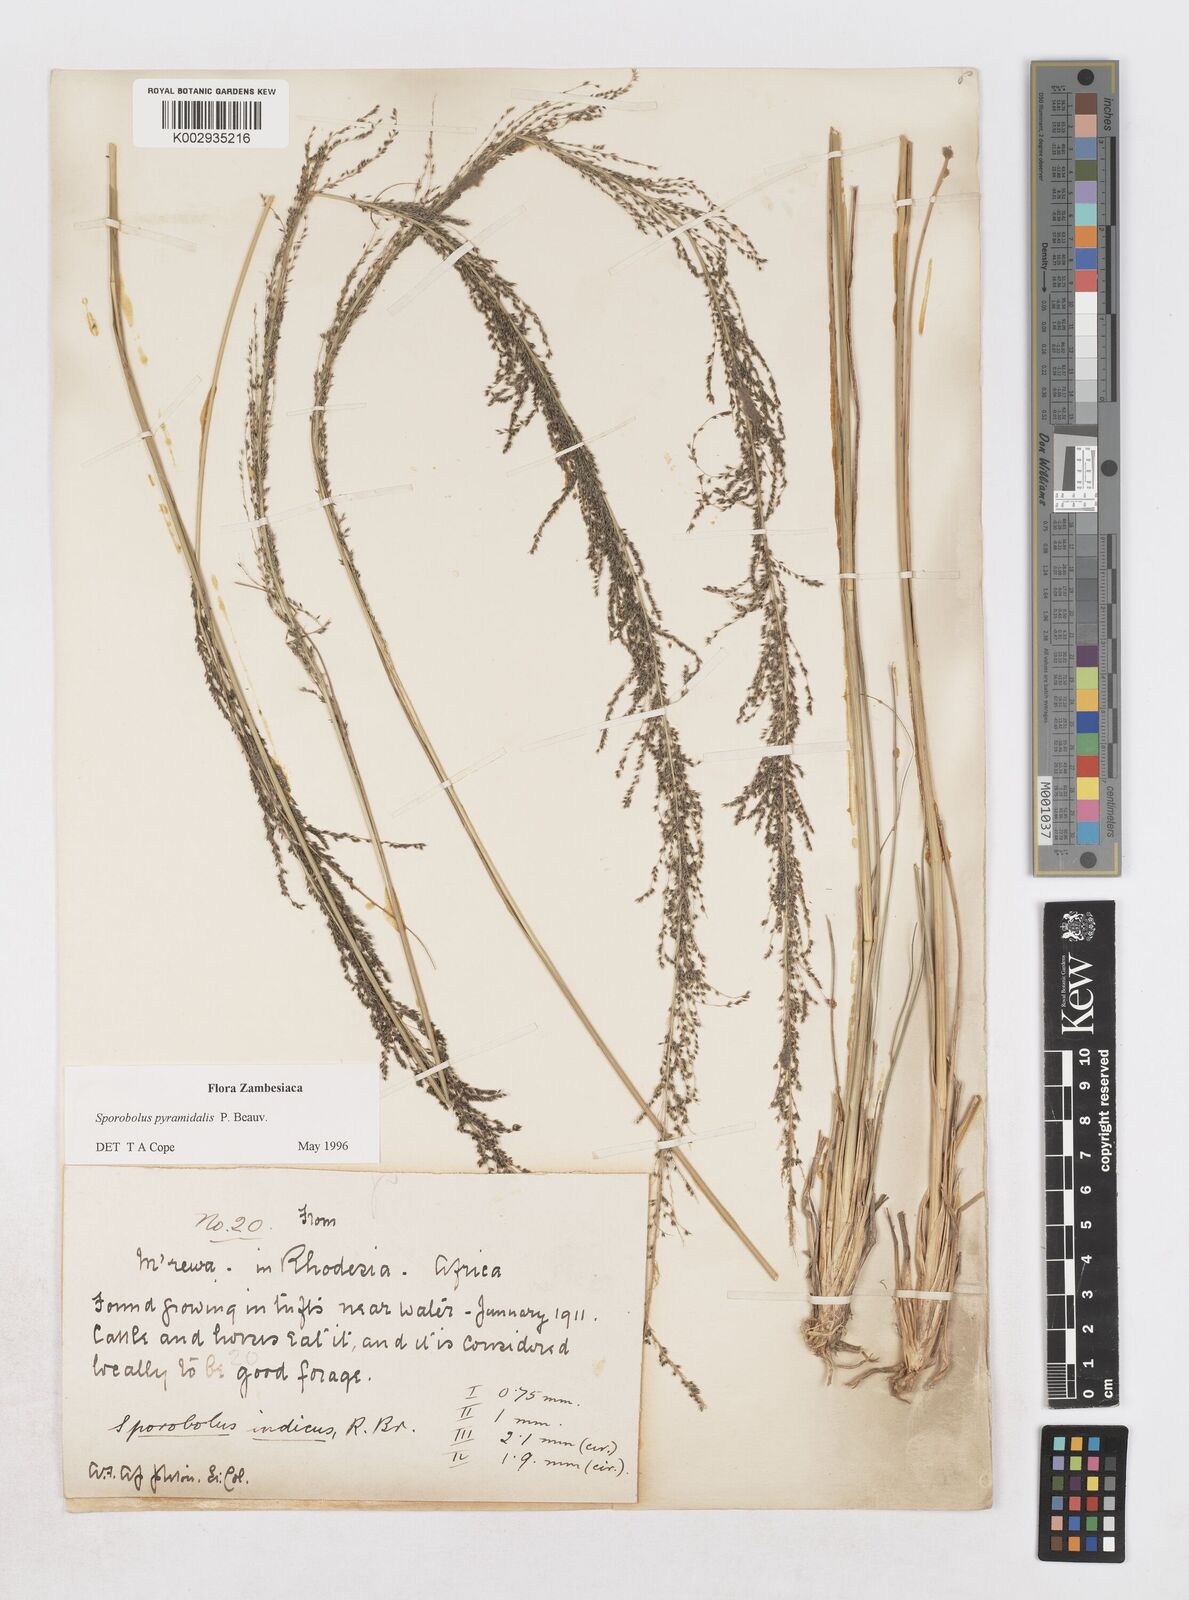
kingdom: Plantae
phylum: Tracheophyta
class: Liliopsida
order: Poales
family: Poaceae
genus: Sporobolus
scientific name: Sporobolus pyramidalis
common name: West indian dropseed
